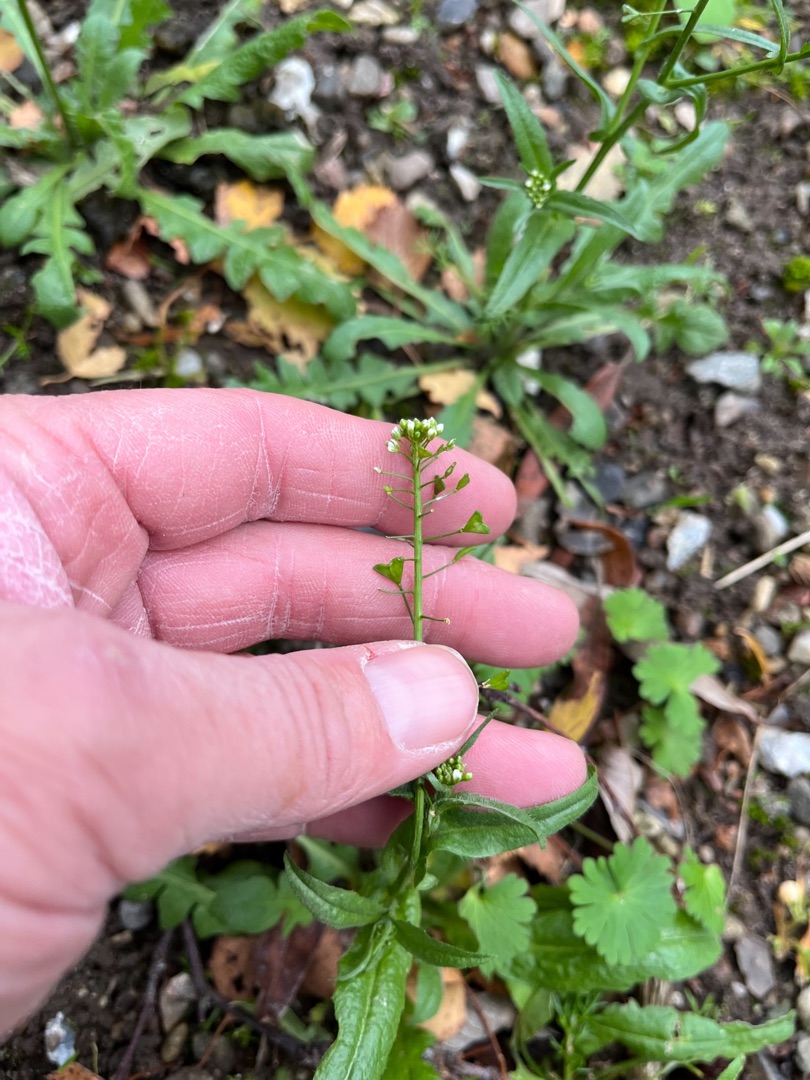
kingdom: Plantae
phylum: Tracheophyta
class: Magnoliopsida
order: Brassicales
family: Brassicaceae
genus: Capsella
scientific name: Capsella bursa-pastoris
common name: Hyrdetaske
